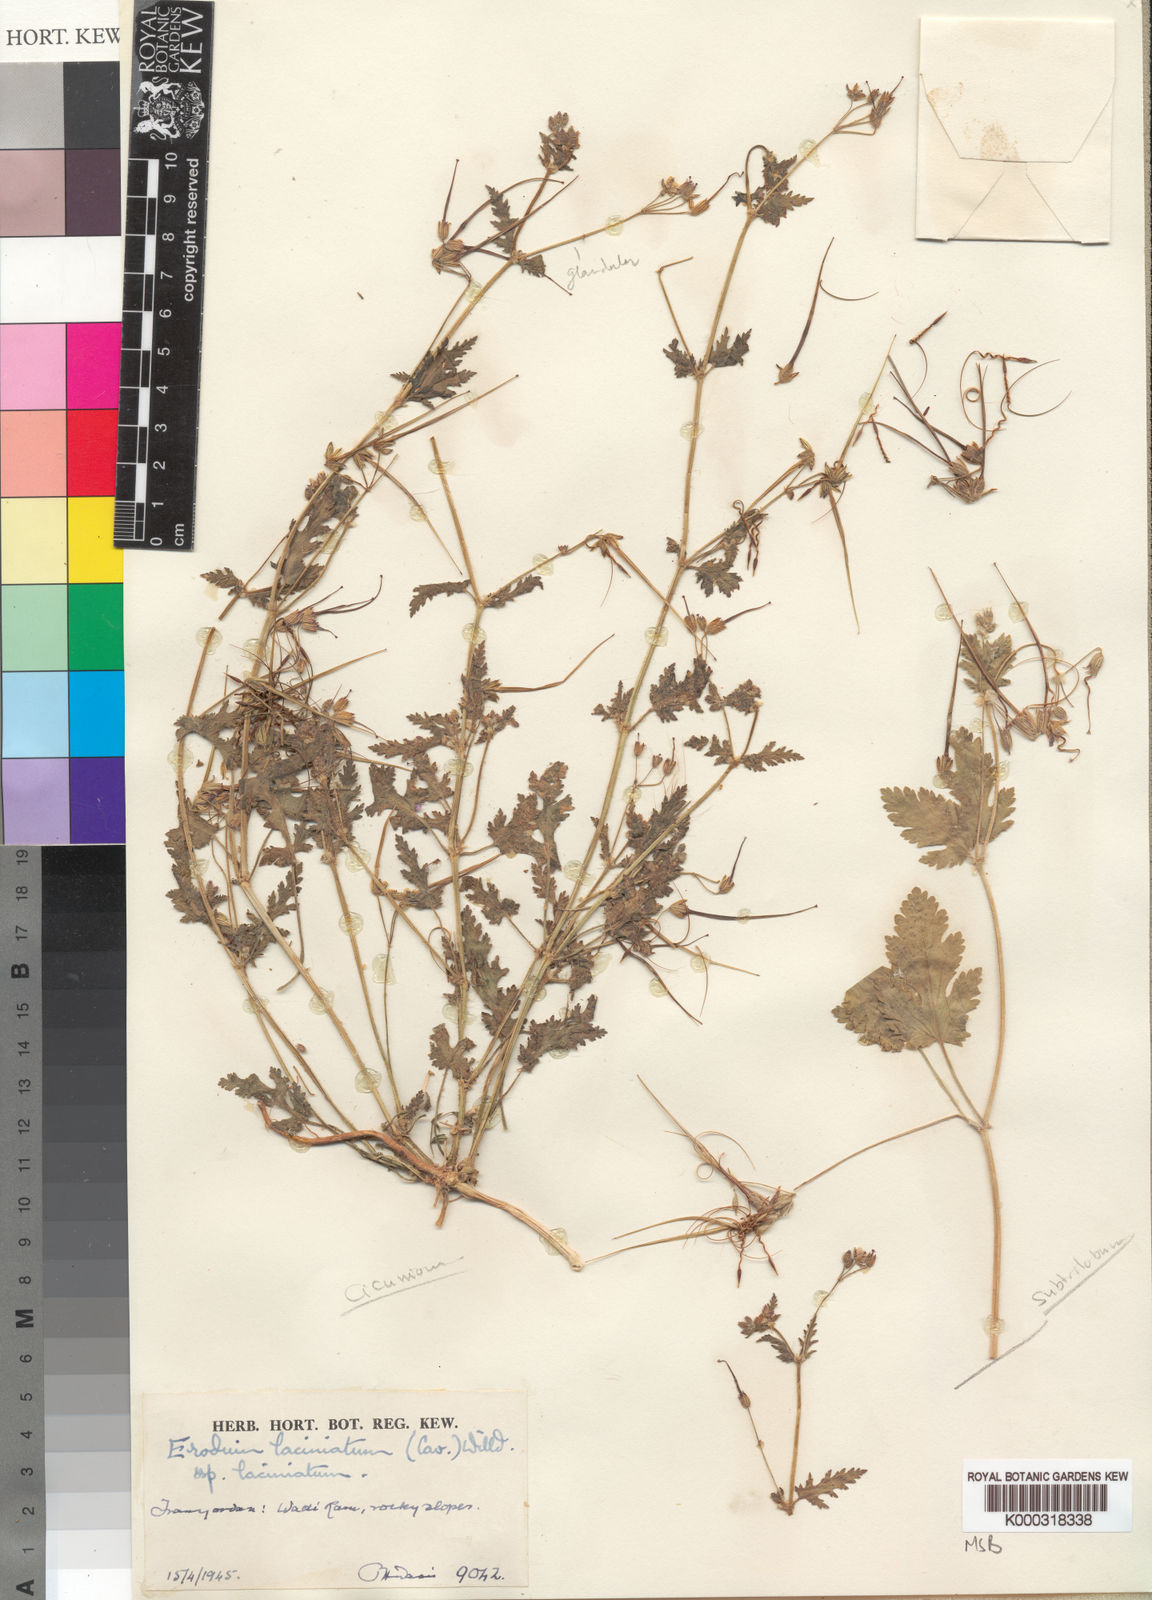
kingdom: Plantae
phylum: Tracheophyta
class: Magnoliopsida
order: Geraniales
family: Geraniaceae
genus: Erodium
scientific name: Erodium laciniatum
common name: Cutleaf stork's bill
